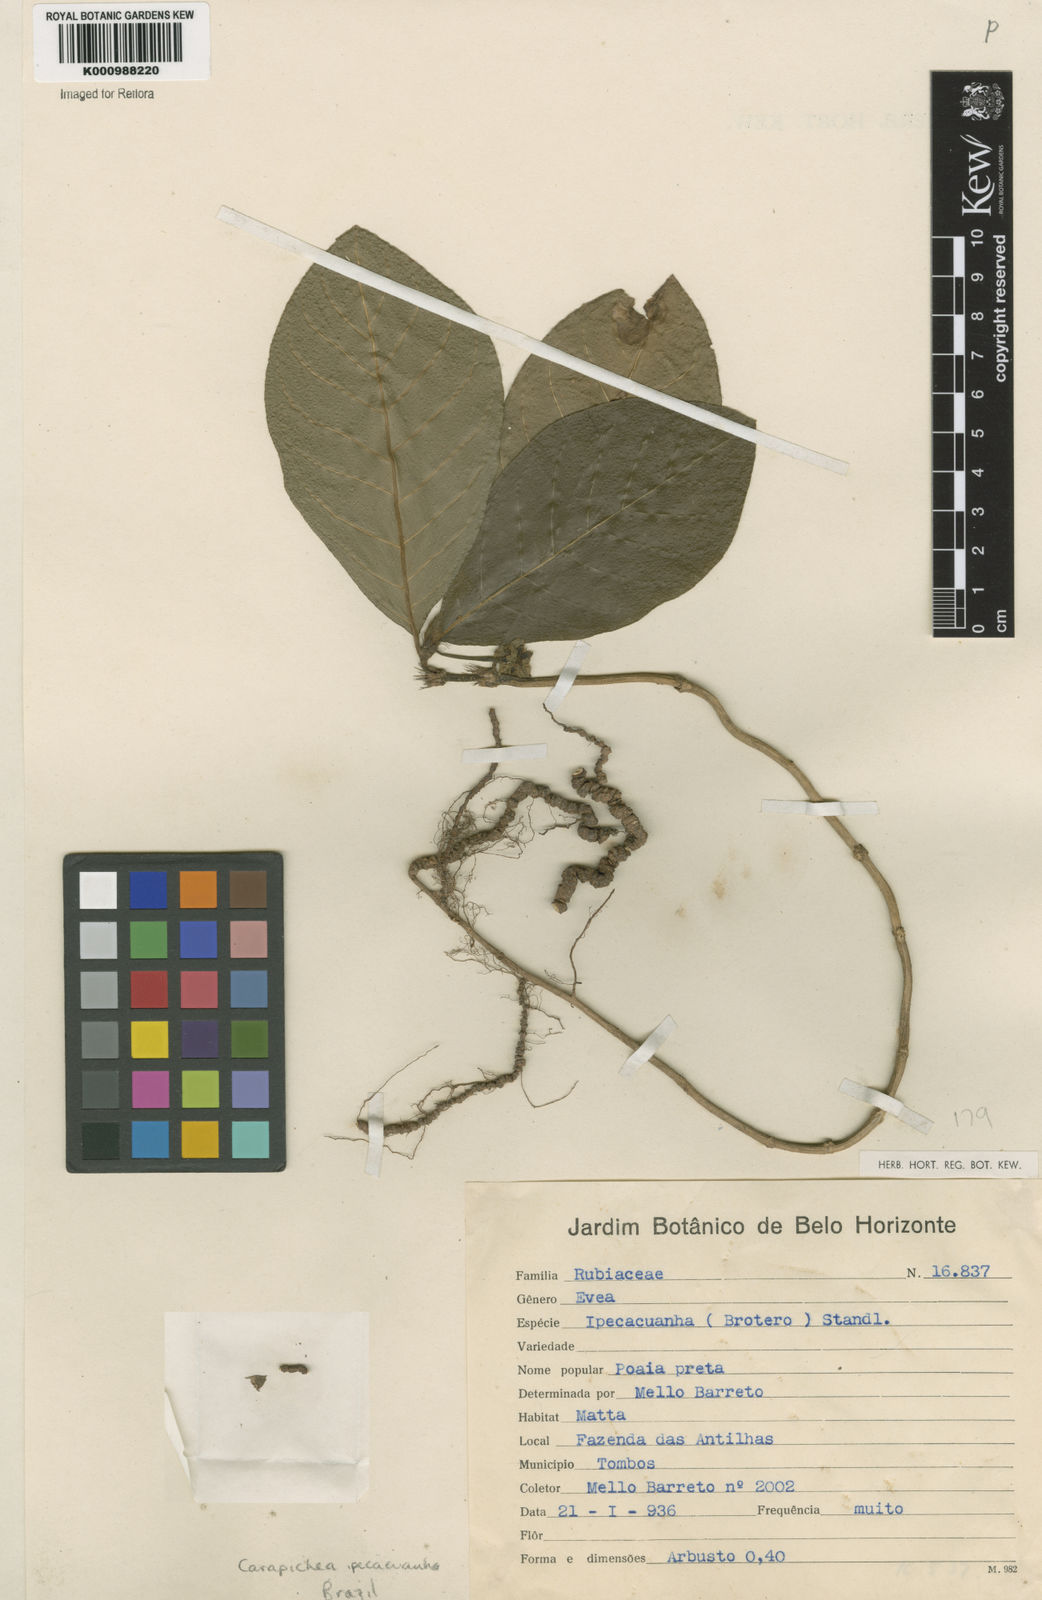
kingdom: Plantae
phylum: Tracheophyta
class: Magnoliopsida
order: Gentianales
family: Rubiaceae
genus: Carapichea
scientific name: Carapichea ipecacuanha
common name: Ipecac
